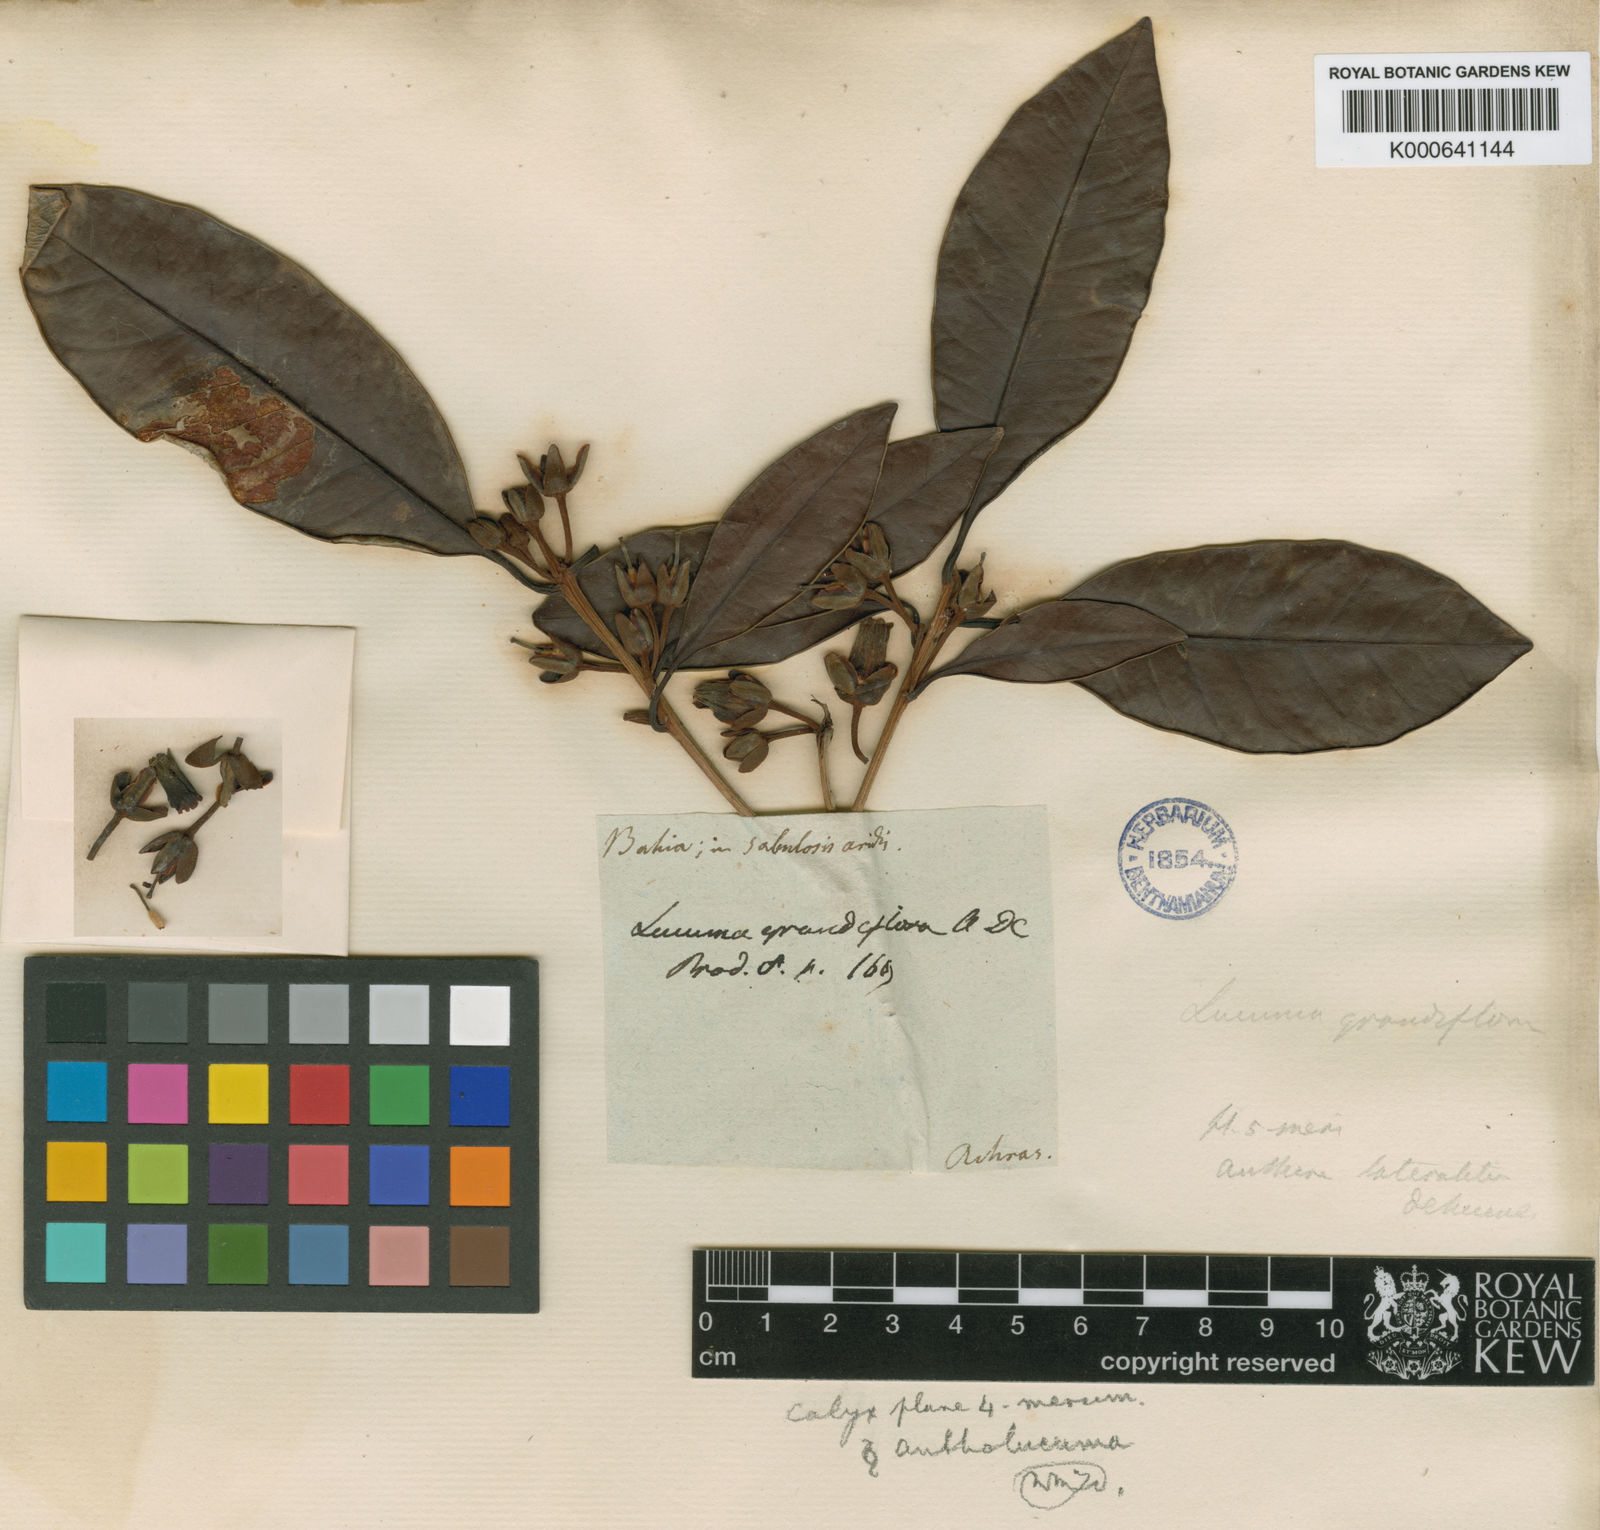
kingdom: Plantae
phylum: Tracheophyta
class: Magnoliopsida
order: Ericales
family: Sapotaceae
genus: Pouteria
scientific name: Pouteria grandiflora
